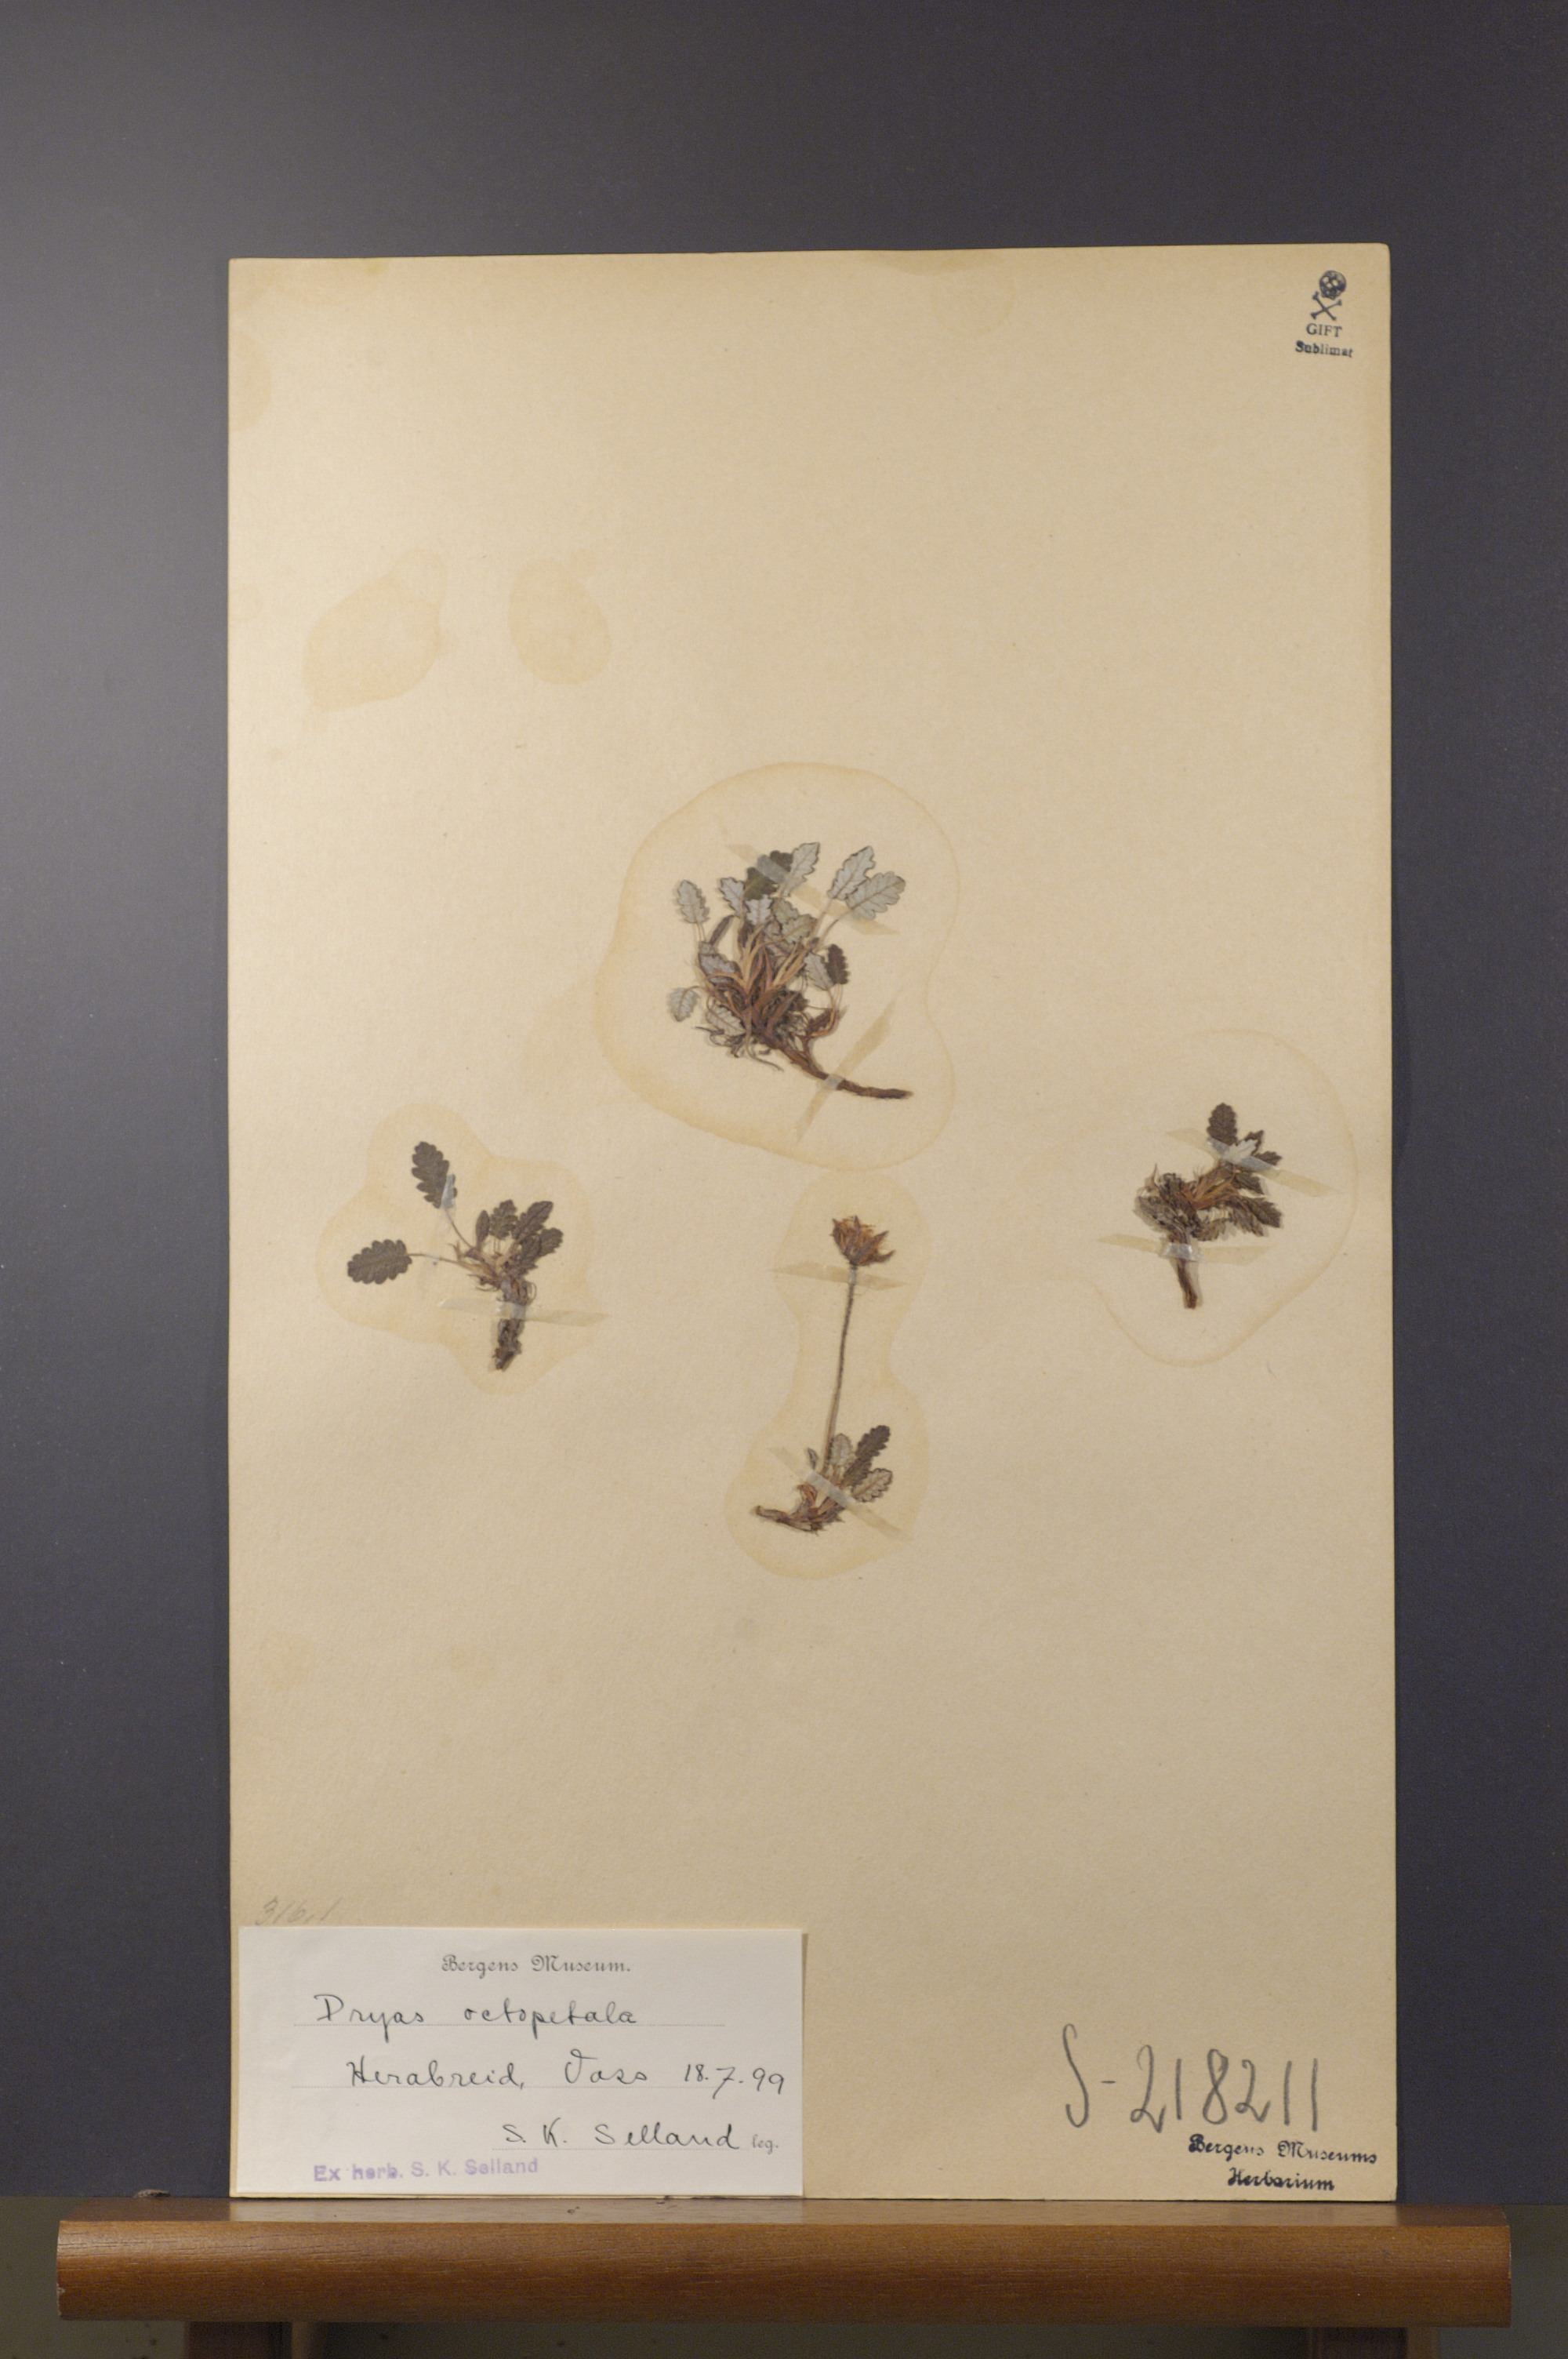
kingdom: Plantae
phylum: Tracheophyta
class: Magnoliopsida
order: Rosales
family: Rosaceae
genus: Dryas
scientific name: Dryas octopetala
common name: Eight-petal mountain-avens
